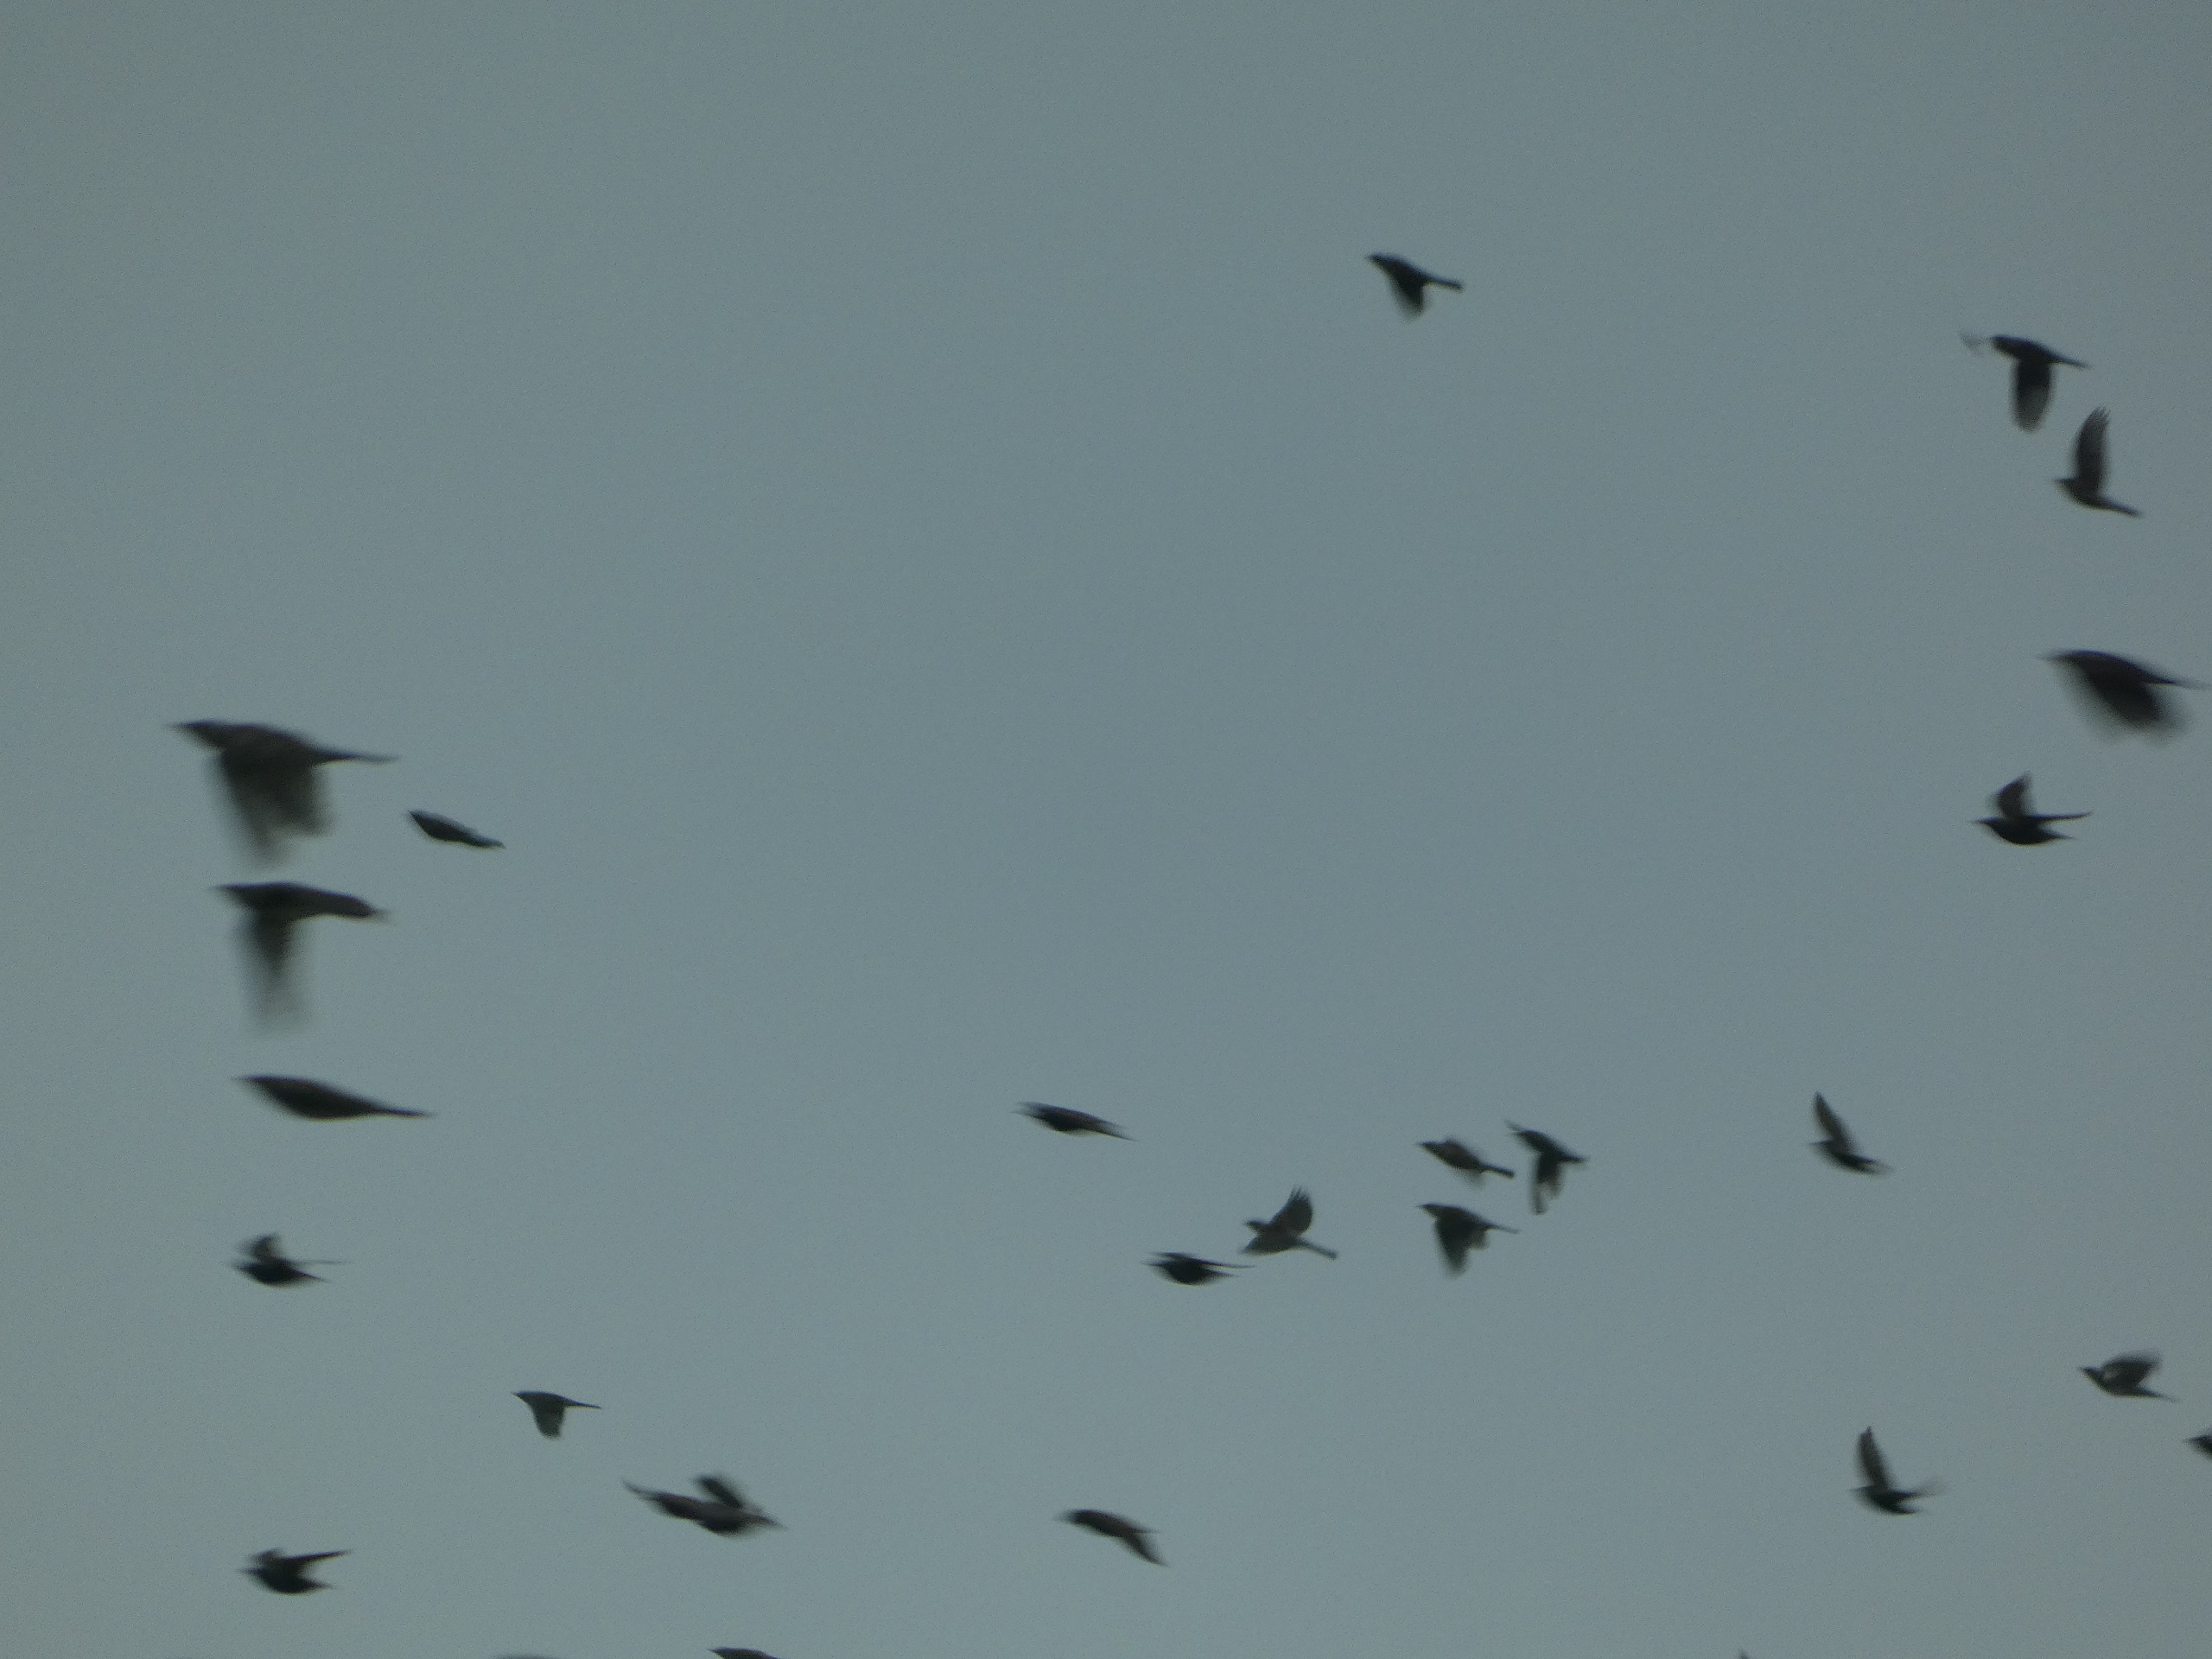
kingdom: Animalia
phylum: Chordata
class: Aves
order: Passeriformes
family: Sturnidae
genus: Sturnus
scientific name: Sturnus vulgaris
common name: Stær
